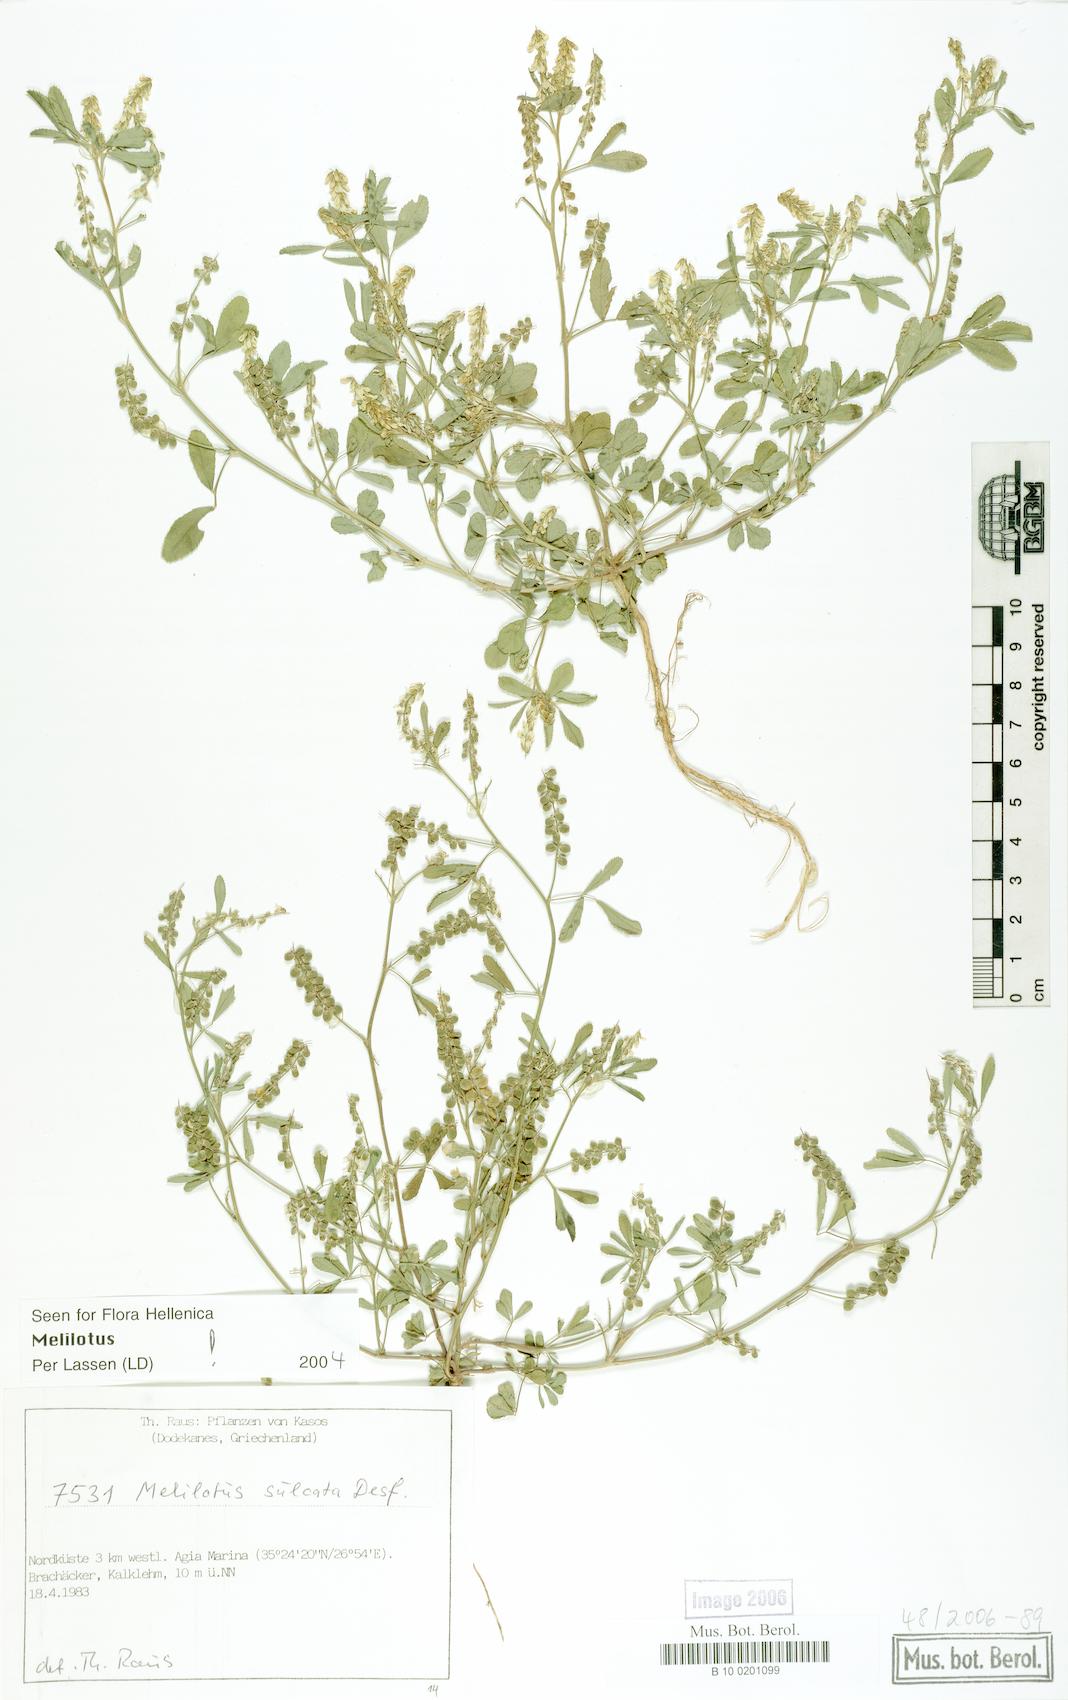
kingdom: Plantae
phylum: Tracheophyta
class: Magnoliopsida
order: Fabales
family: Fabaceae
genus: Melilotus
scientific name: Melilotus sulcatus
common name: Furrowed melilot
